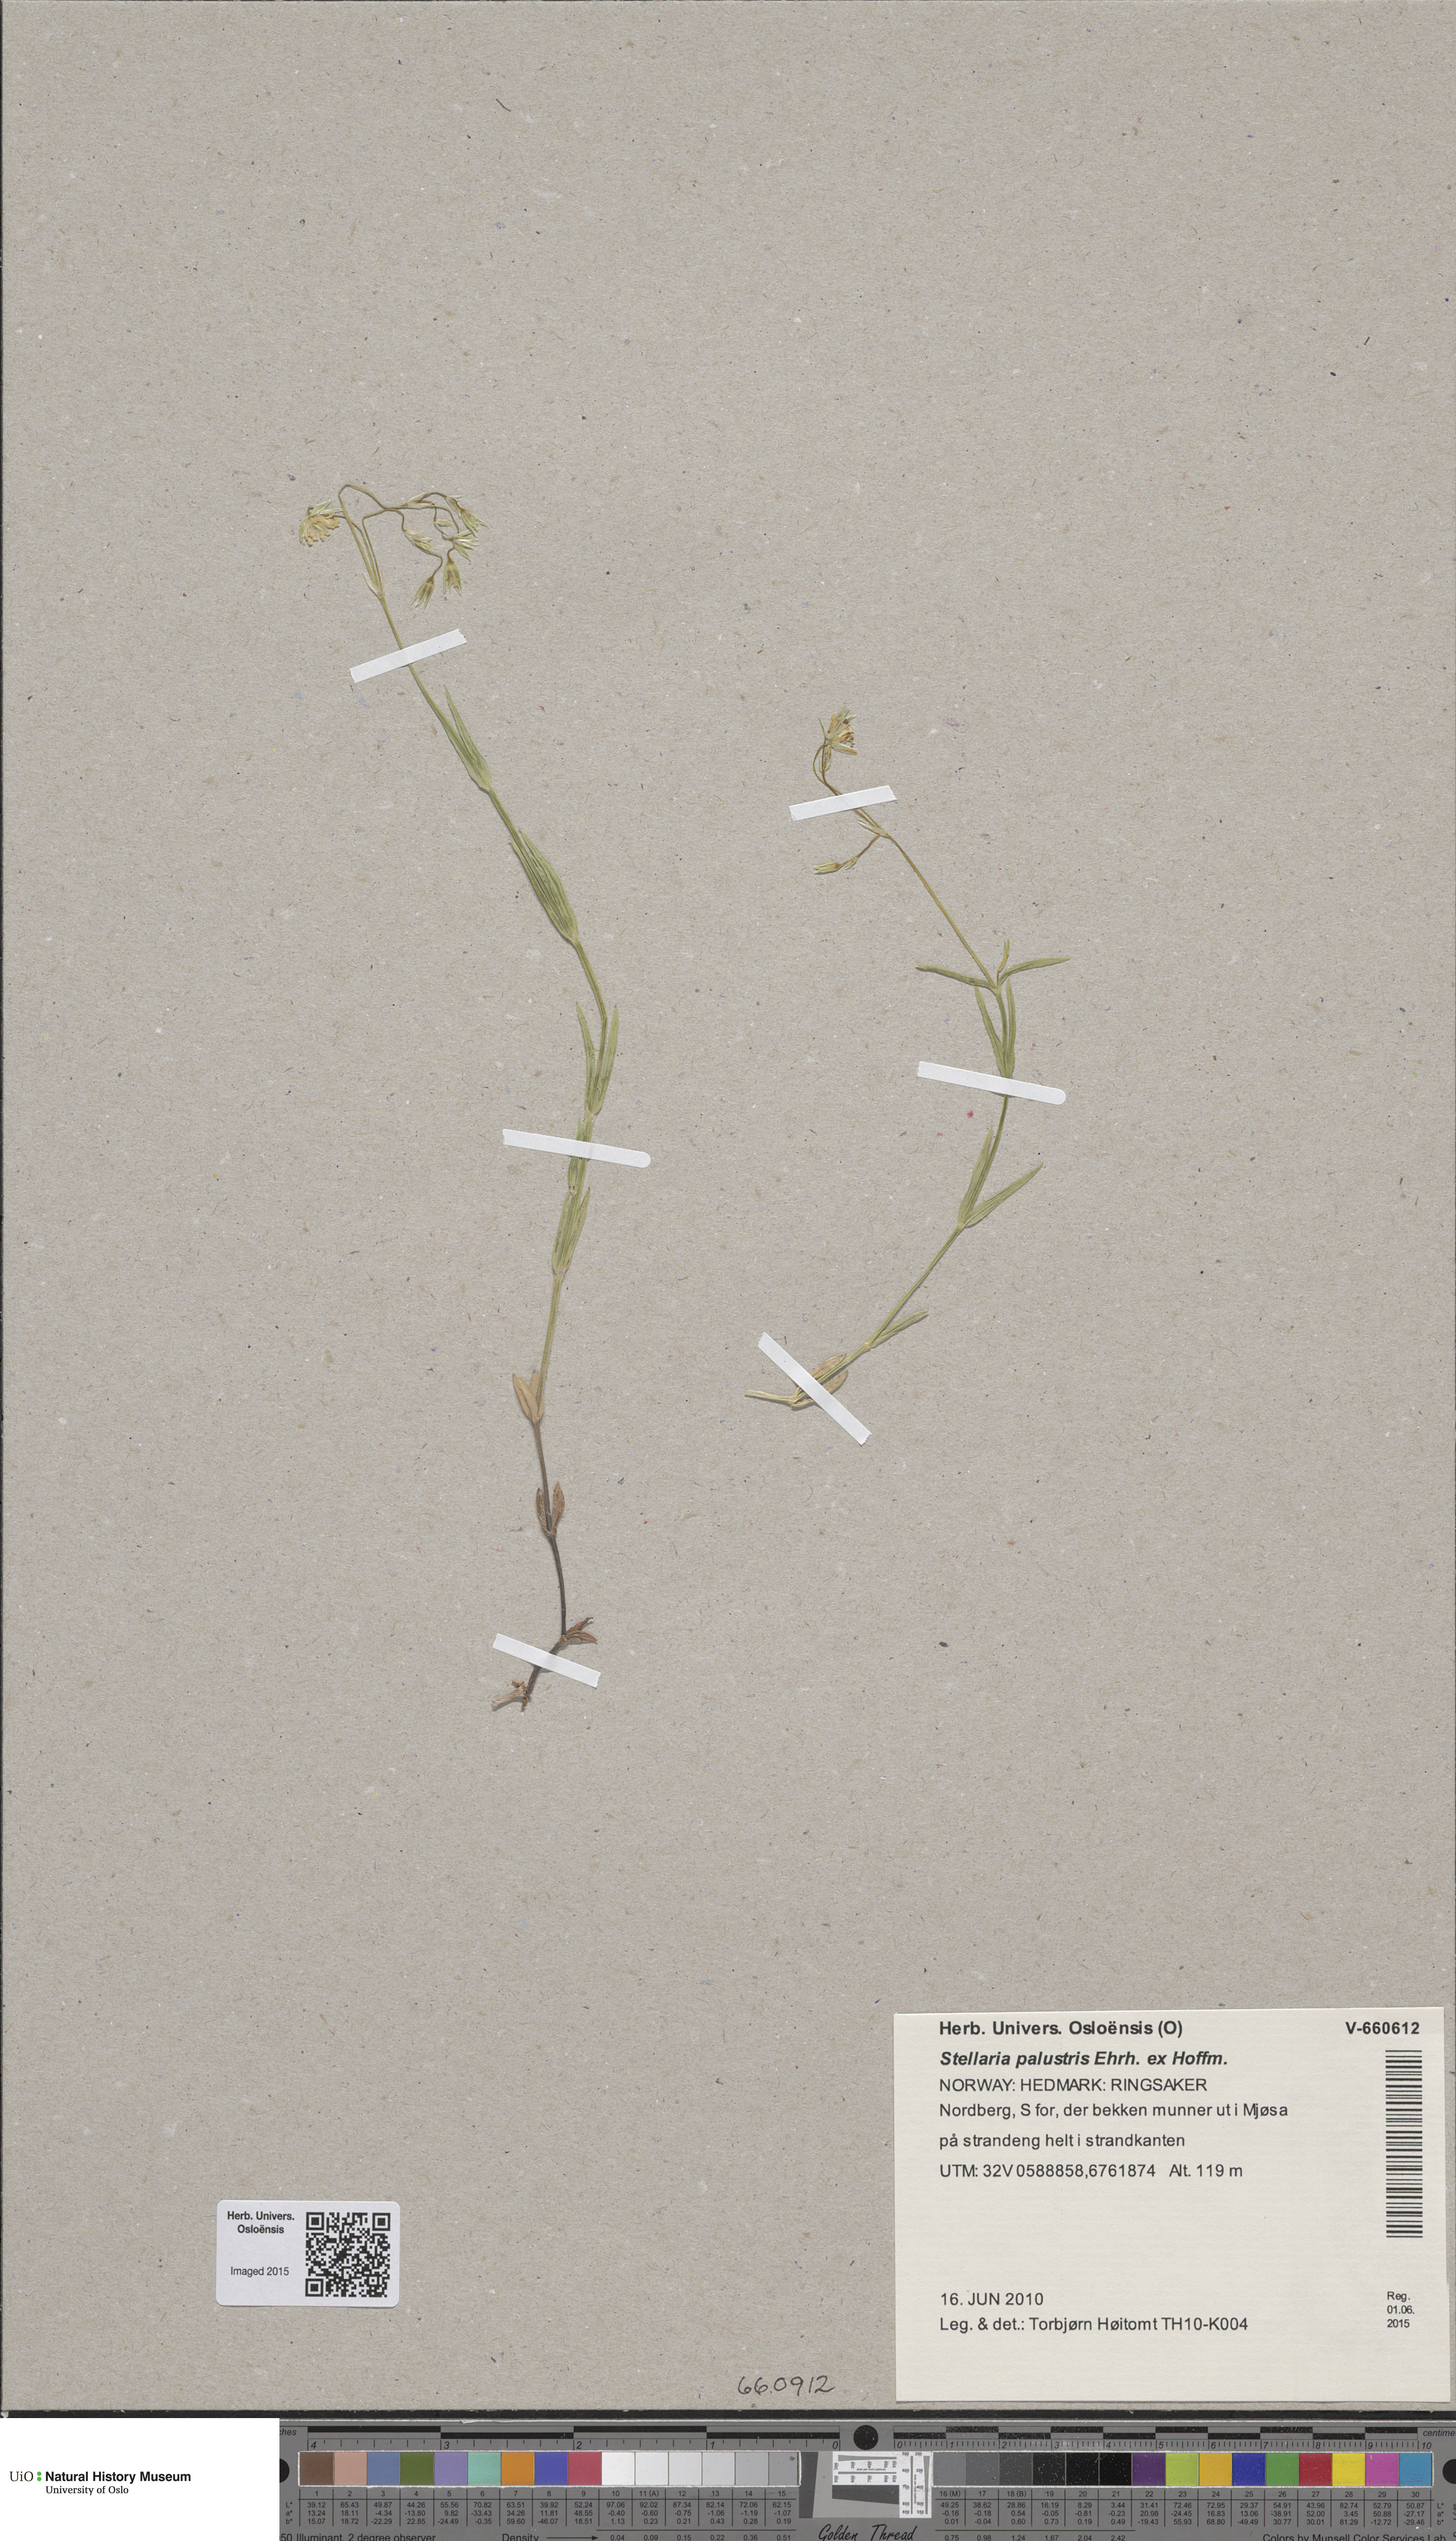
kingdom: Plantae
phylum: Tracheophyta
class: Magnoliopsida
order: Caryophyllales
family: Caryophyllaceae
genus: Stellaria
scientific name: Stellaria palustris
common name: Marsh stitchwort
